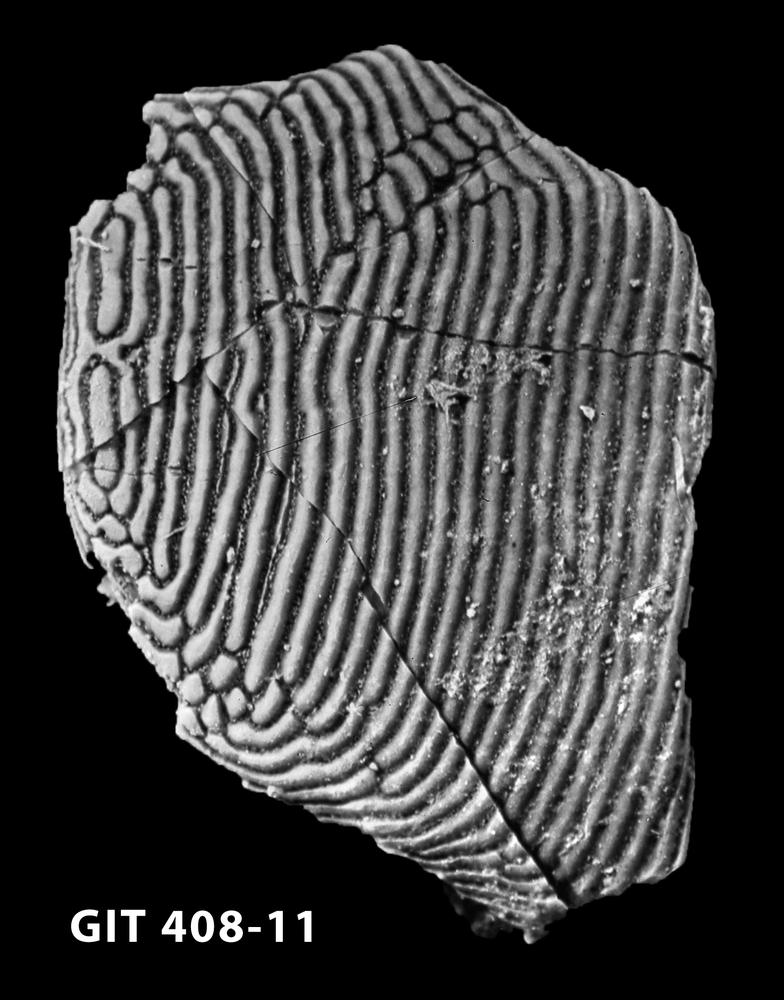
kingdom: Animalia
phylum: Chordata
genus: Archegonaspis
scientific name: Archegonaspis
